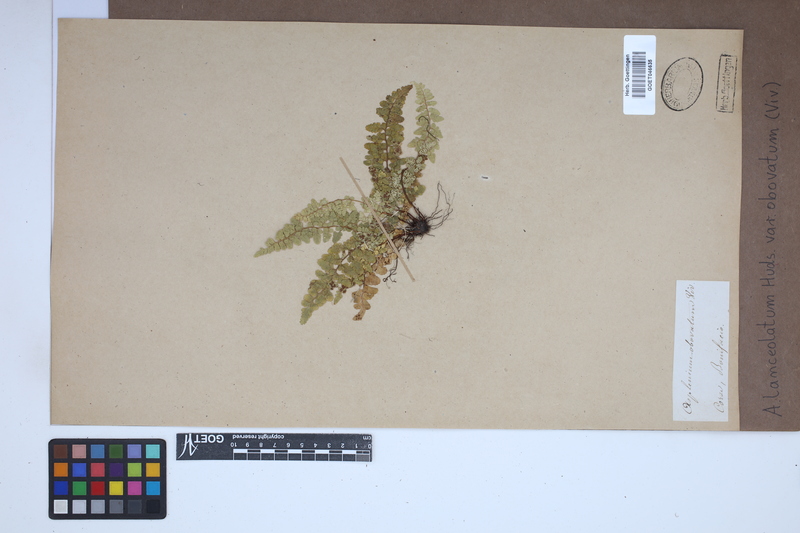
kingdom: Plantae
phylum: Tracheophyta
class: Polypodiopsida
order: Polypodiales
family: Aspleniaceae
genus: Asplenium
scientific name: Asplenium obovatum
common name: Lanceolate spleenwort
